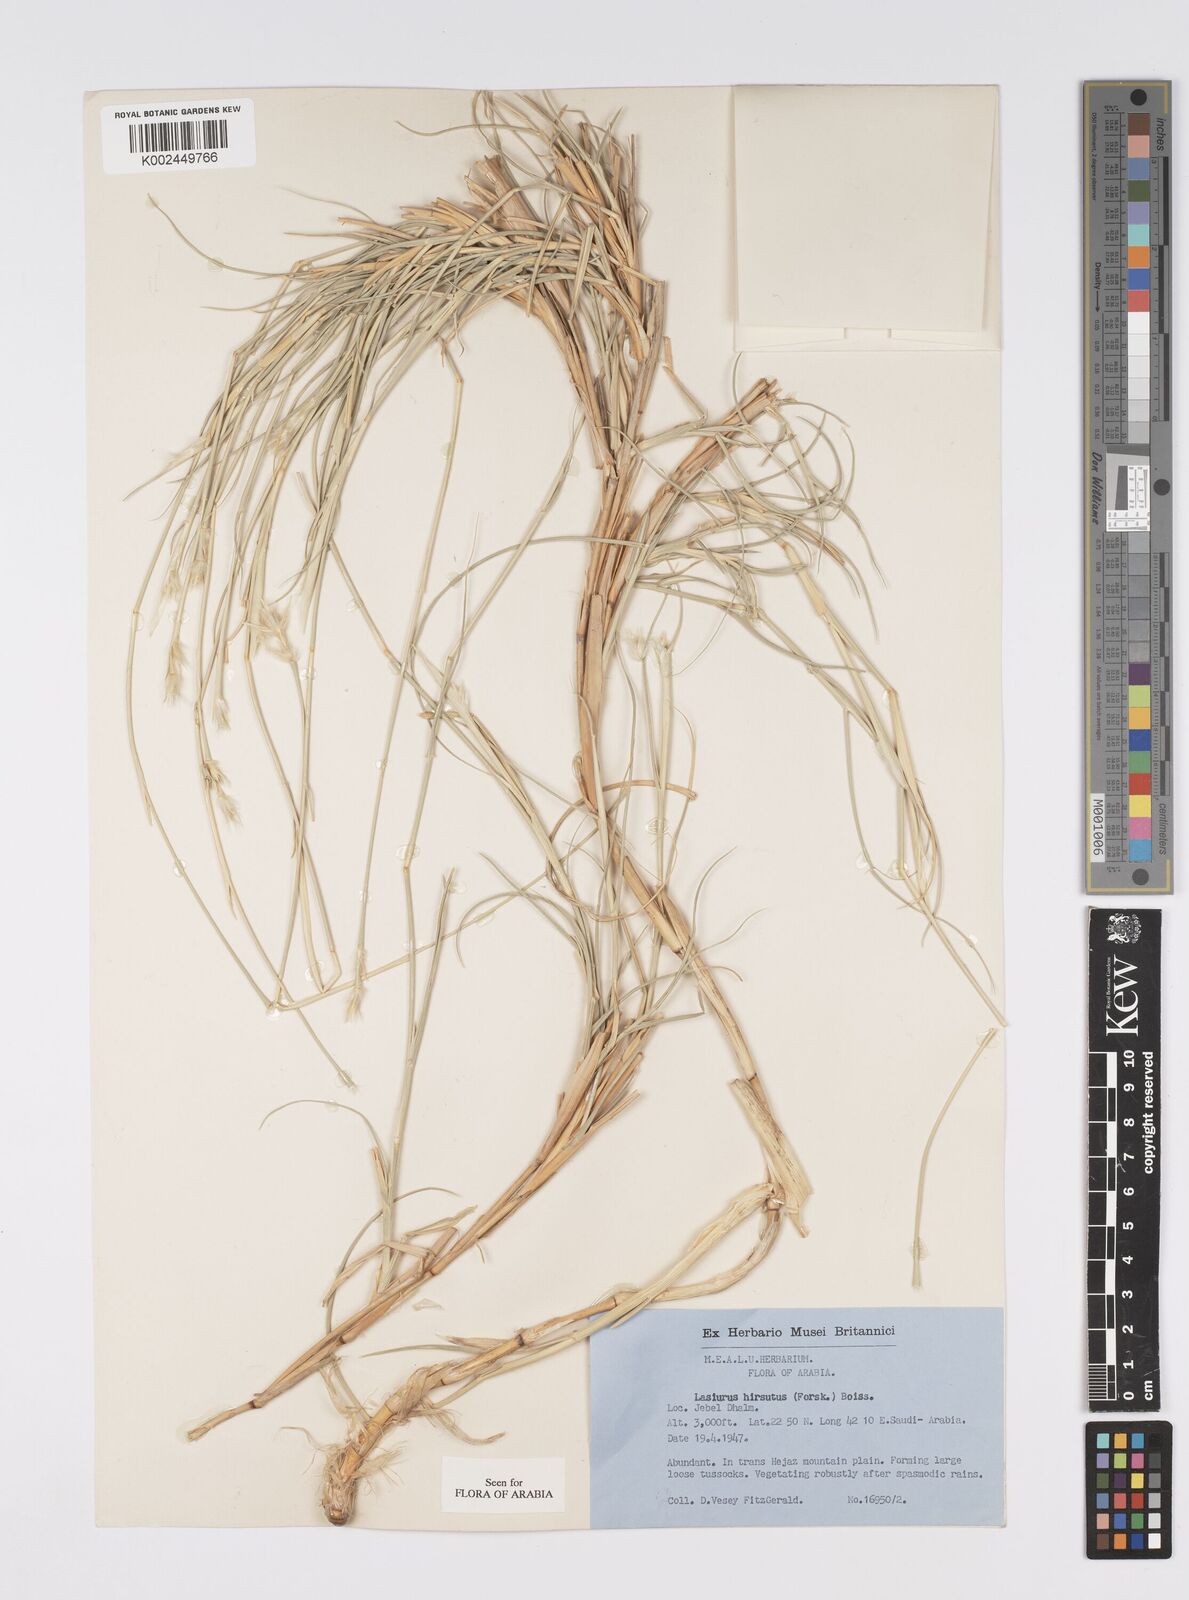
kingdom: Plantae
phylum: Tracheophyta
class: Liliopsida
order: Poales
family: Poaceae
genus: Lasiurus
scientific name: Lasiurus scindicus
